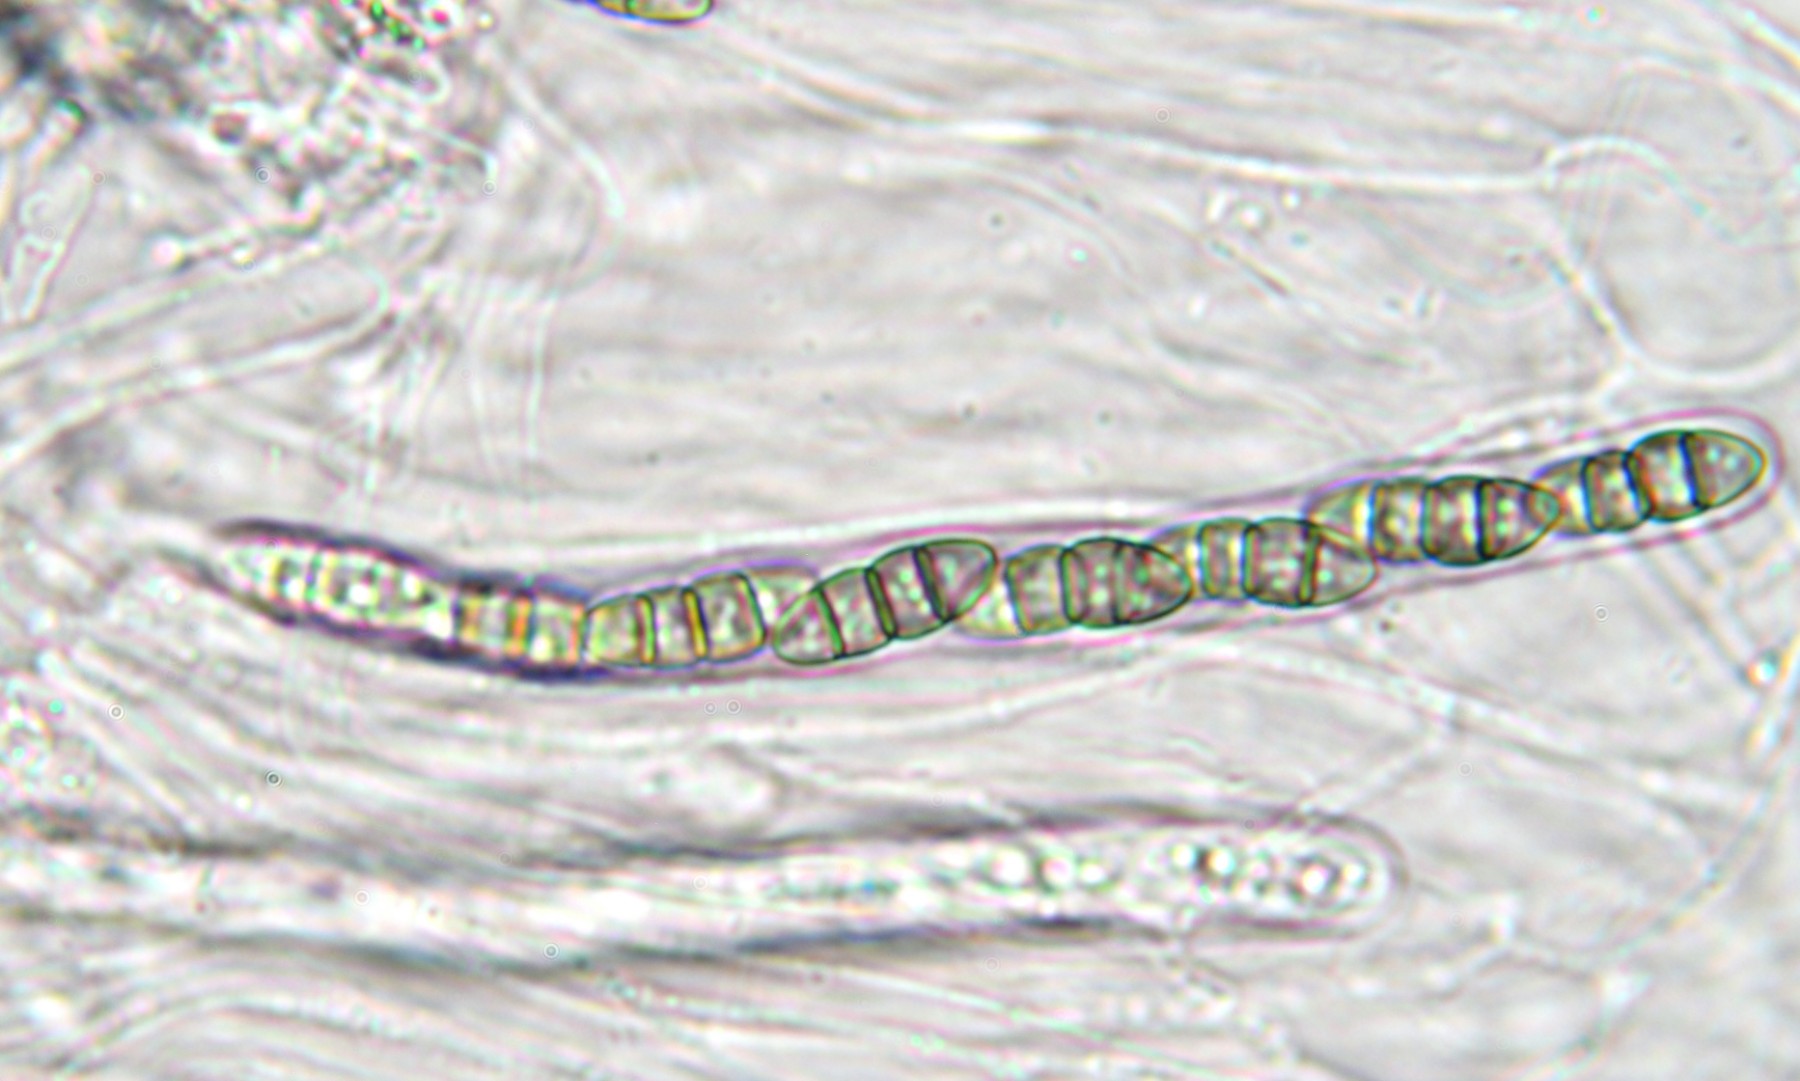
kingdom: Fungi
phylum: Ascomycota
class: Dothideomycetes
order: Pleosporales
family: Melanommataceae
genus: Melanomma
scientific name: Melanomma pulvis-pyrius
